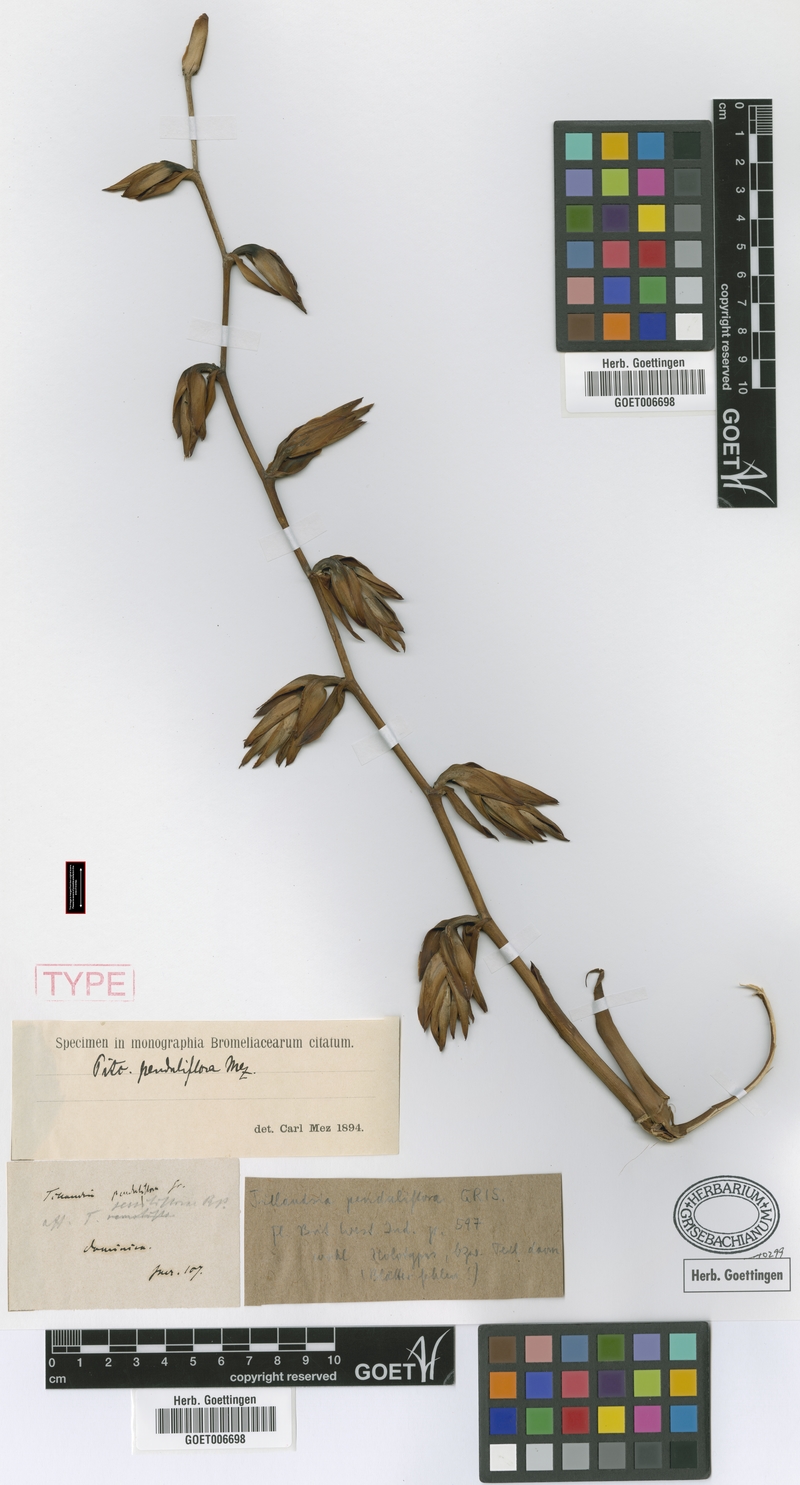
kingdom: Plantae
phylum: Tracheophyta
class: Liliopsida
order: Poales
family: Bromeliaceae
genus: Glomeropitcairnia
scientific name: Glomeropitcairnia penduliflora
